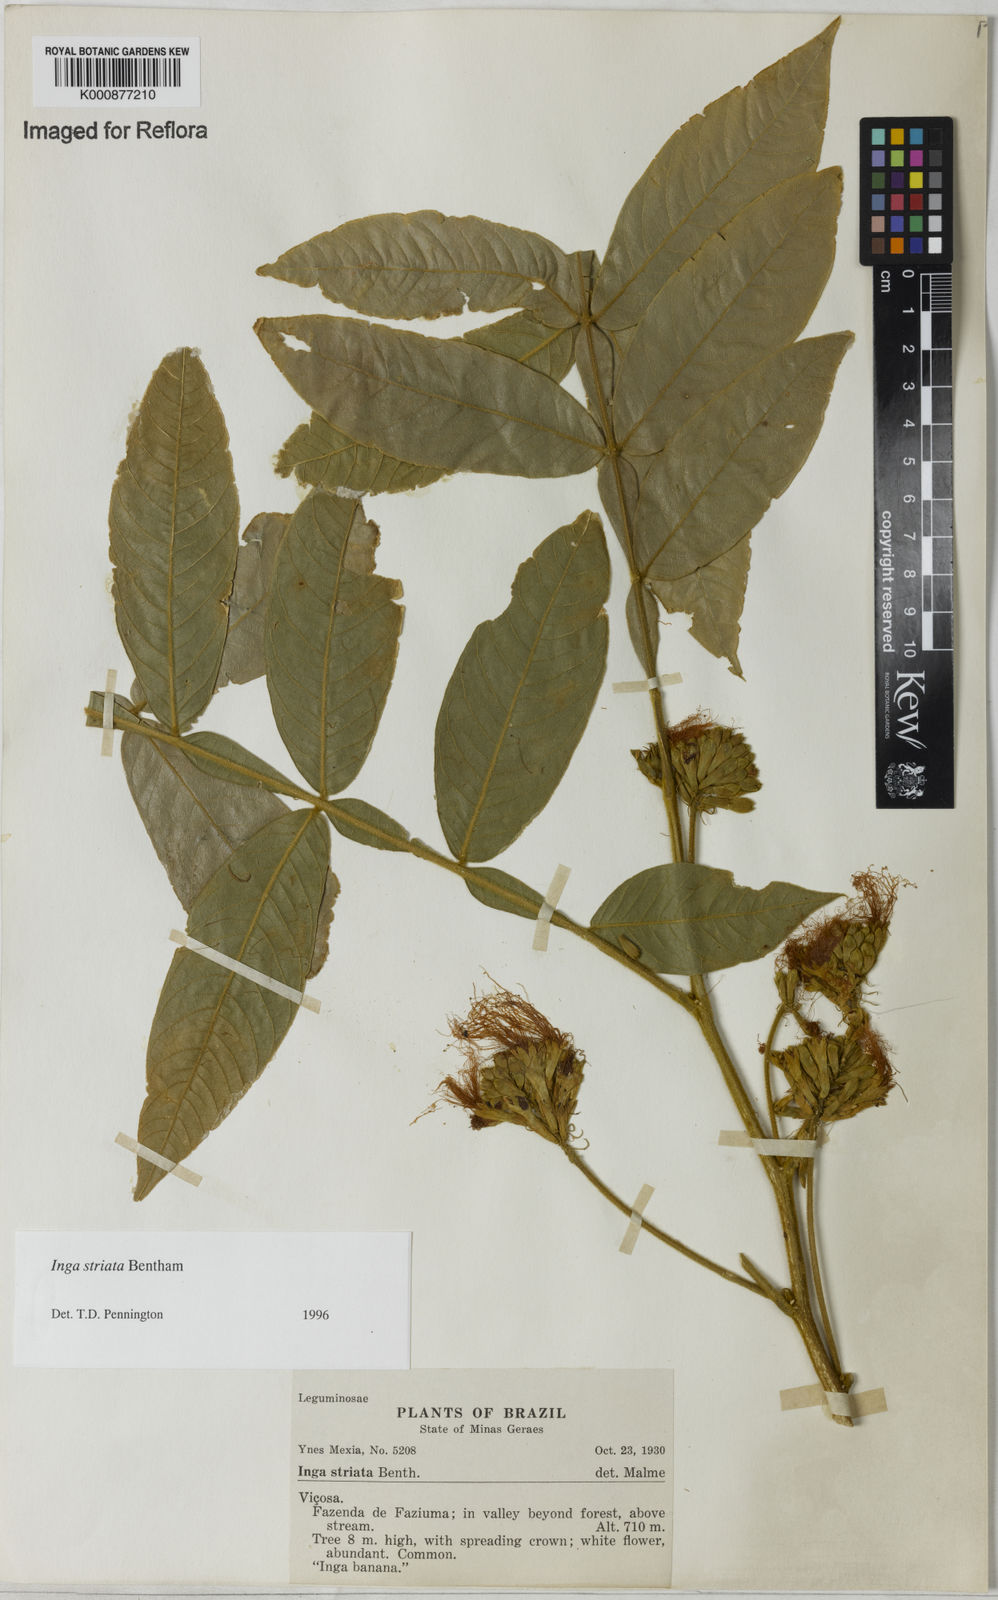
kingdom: Plantae
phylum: Tracheophyta
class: Magnoliopsida
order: Fabales
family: Fabaceae
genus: Inga
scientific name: Inga striata
